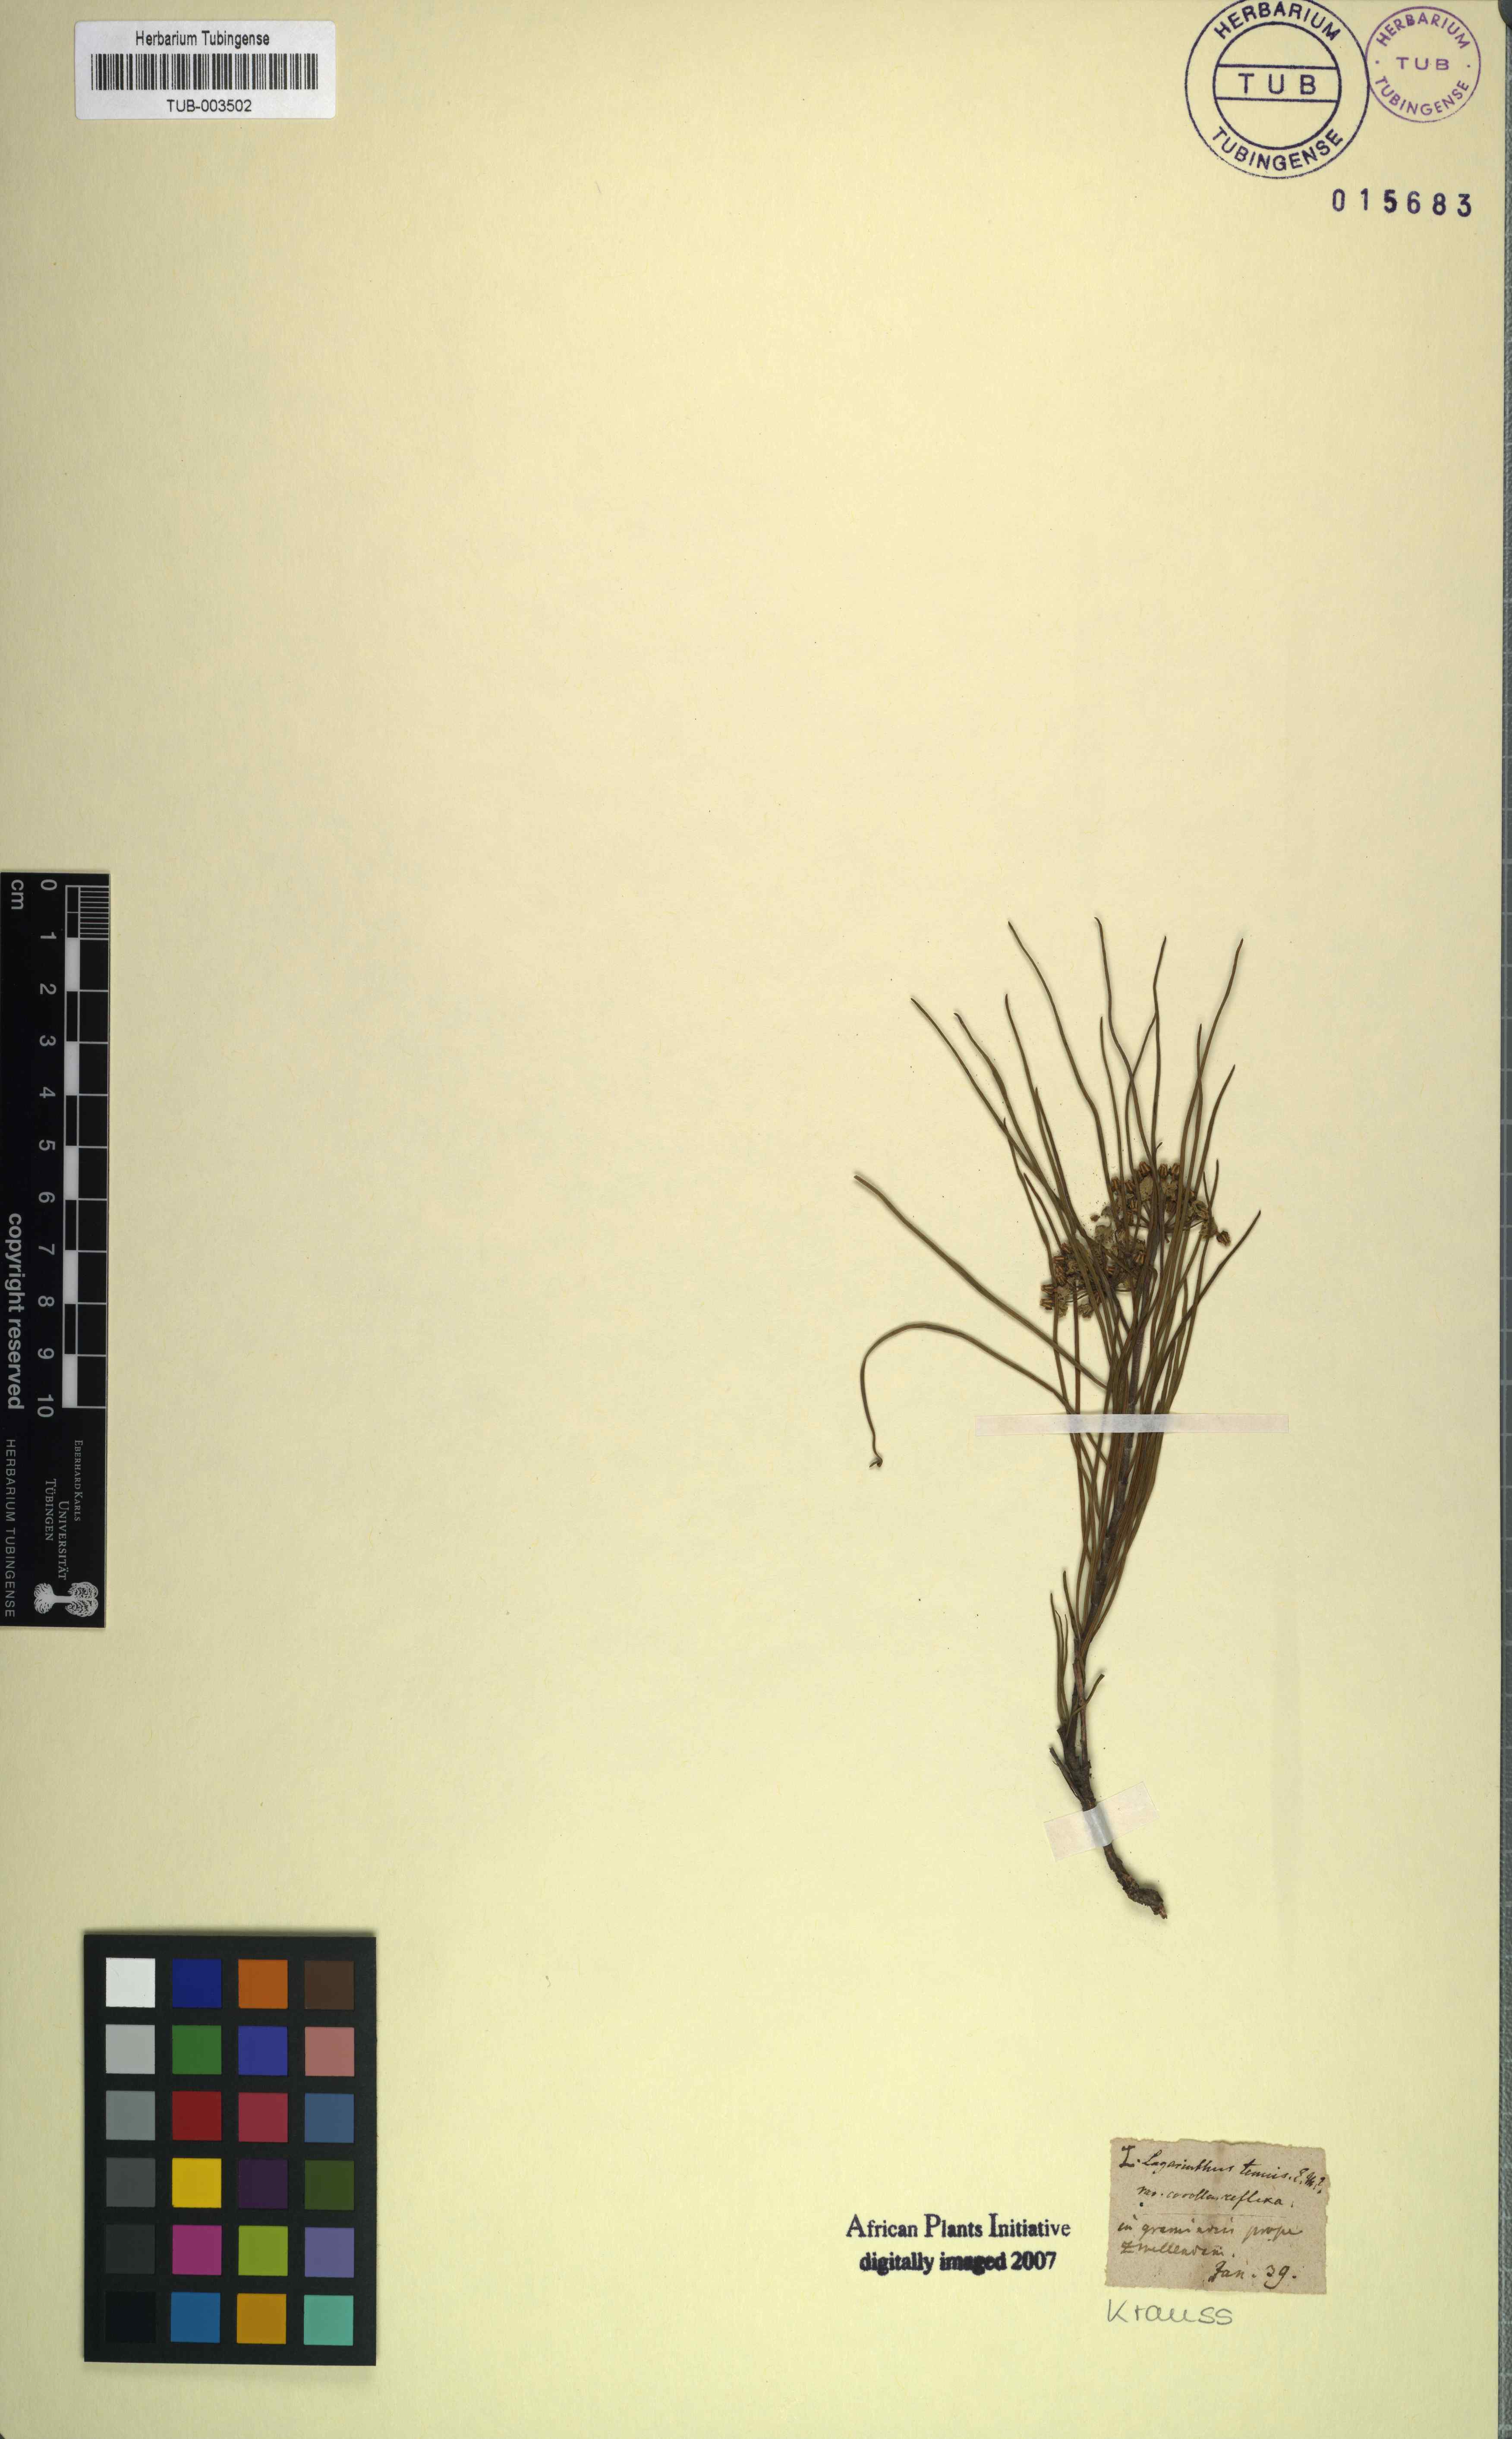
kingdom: Plantae
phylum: Tracheophyta
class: Magnoliopsida
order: Gentianales
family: Apocynaceae
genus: Schizoglossum
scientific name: Schizoglossum linifolium
